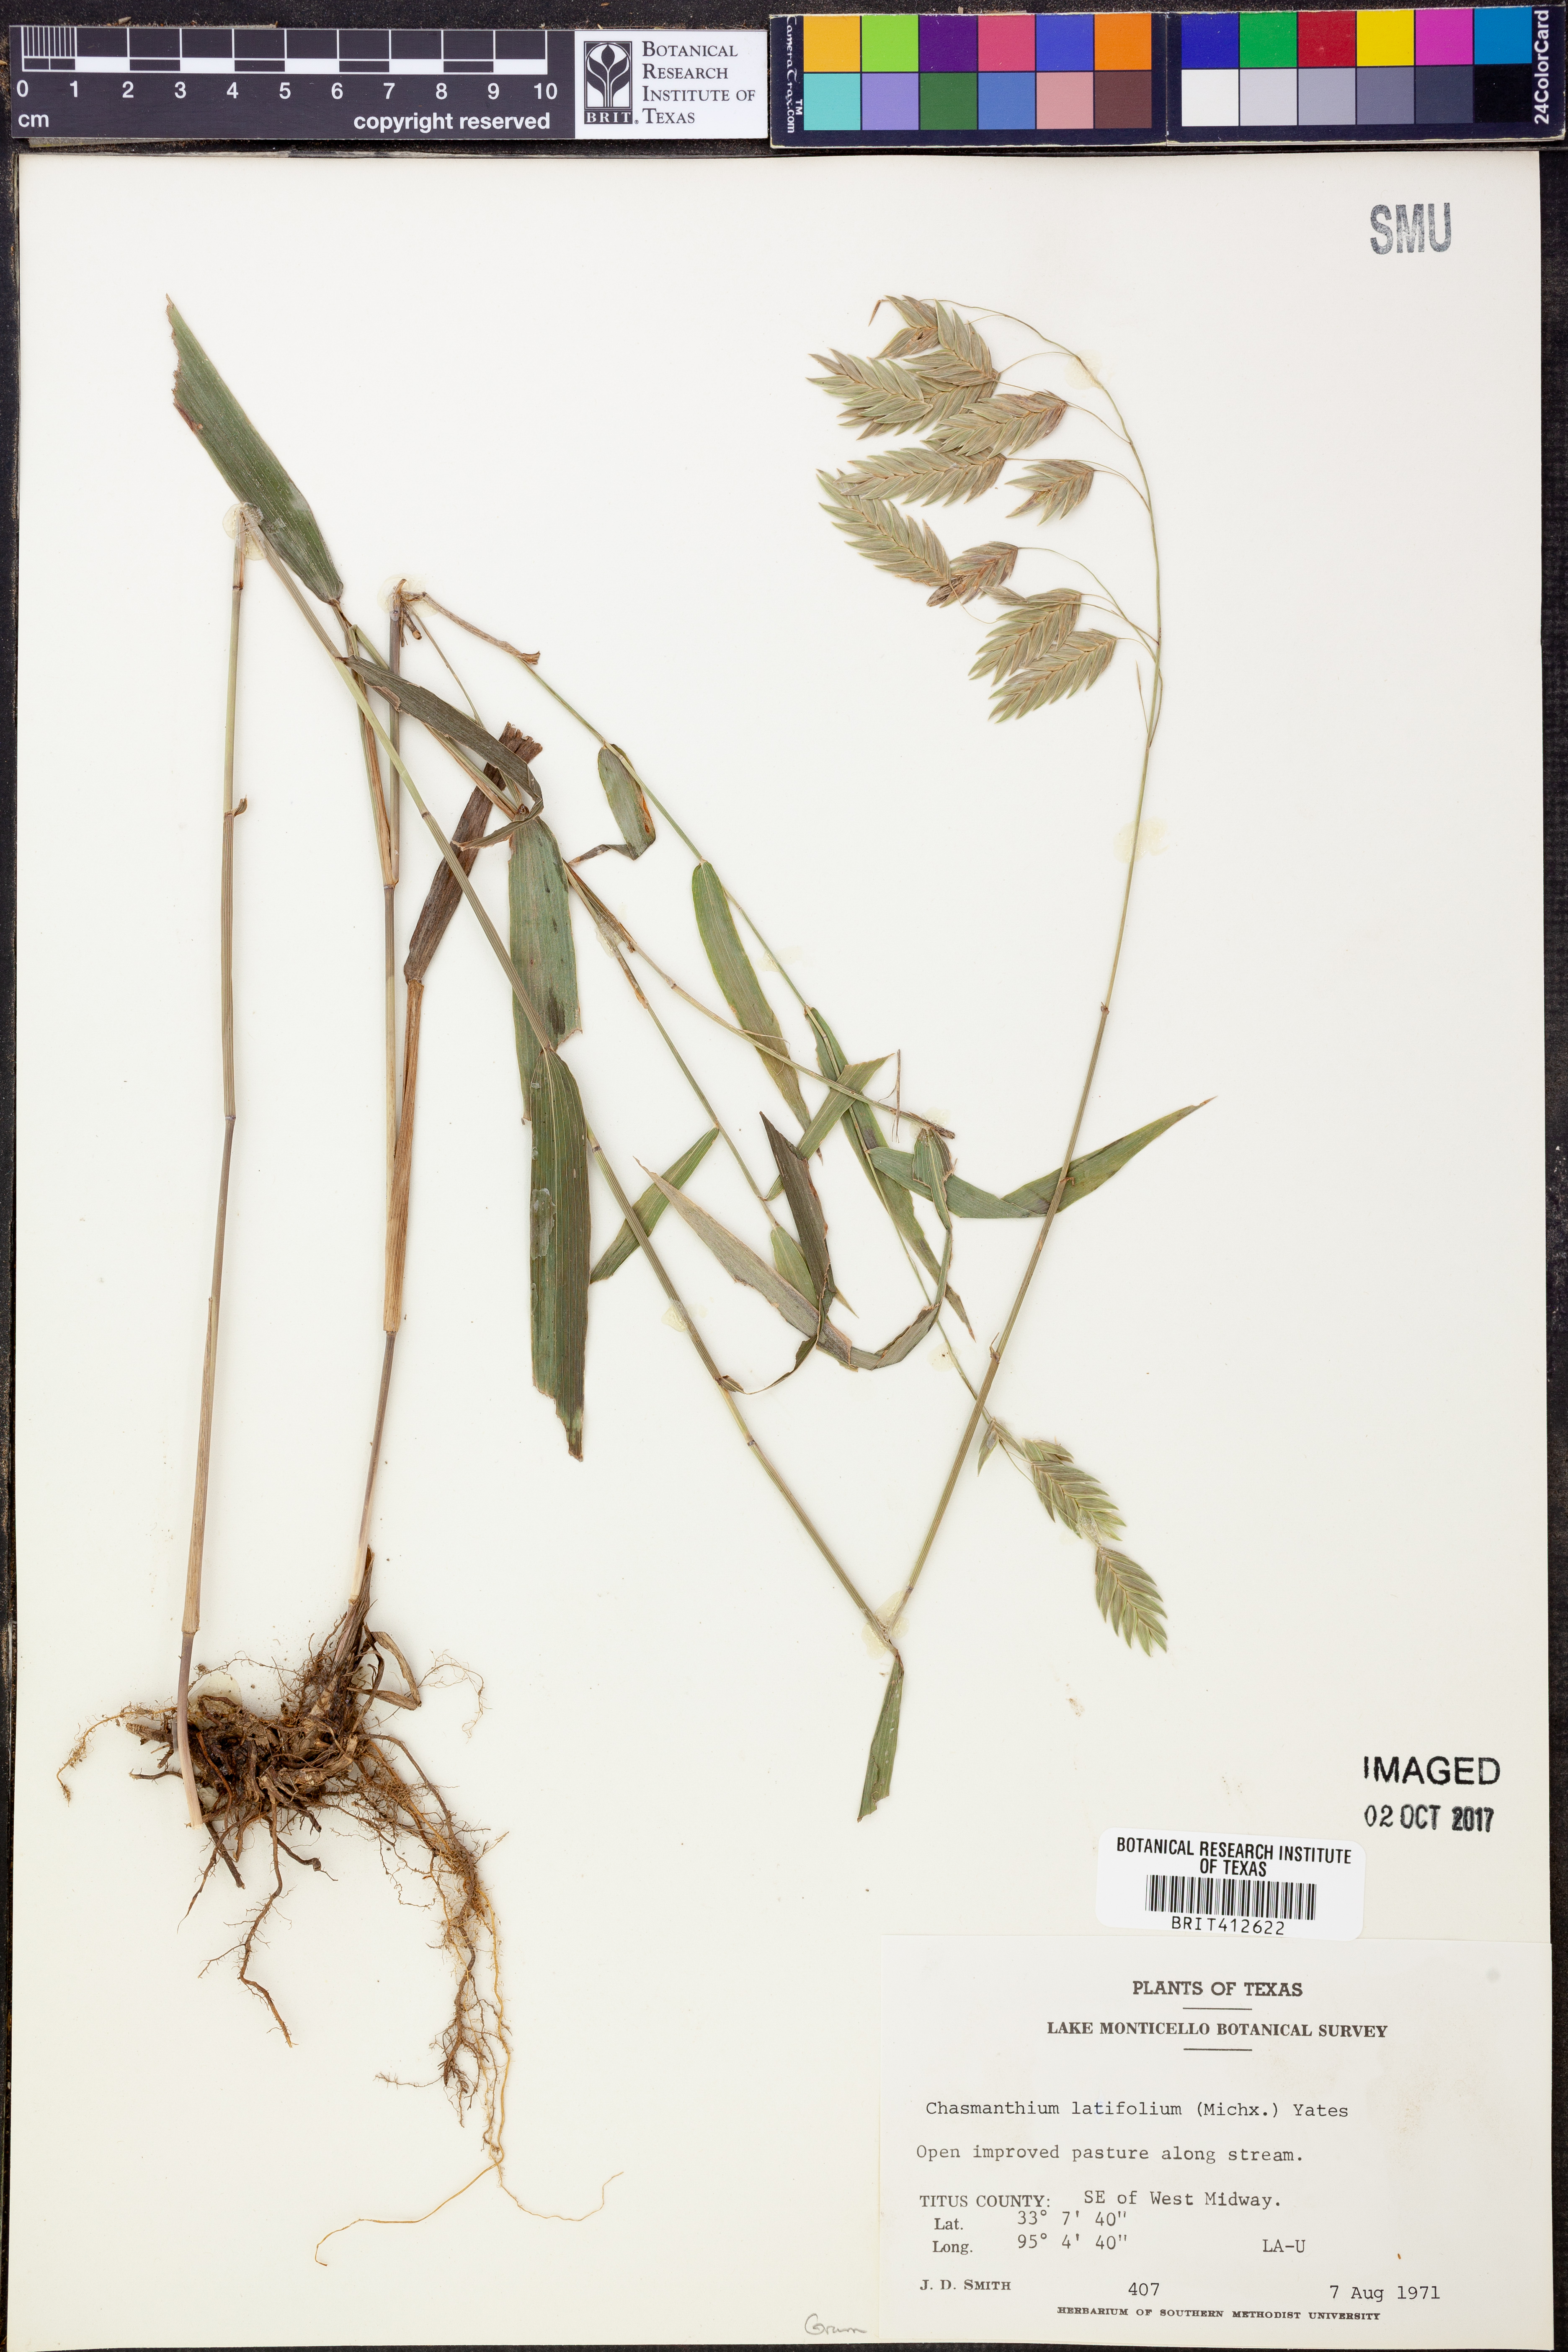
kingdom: Plantae
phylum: Tracheophyta
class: Liliopsida
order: Poales
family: Poaceae
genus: Chasmanthium
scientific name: Chasmanthium latifolium
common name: Broad-leaved chasmanthium
